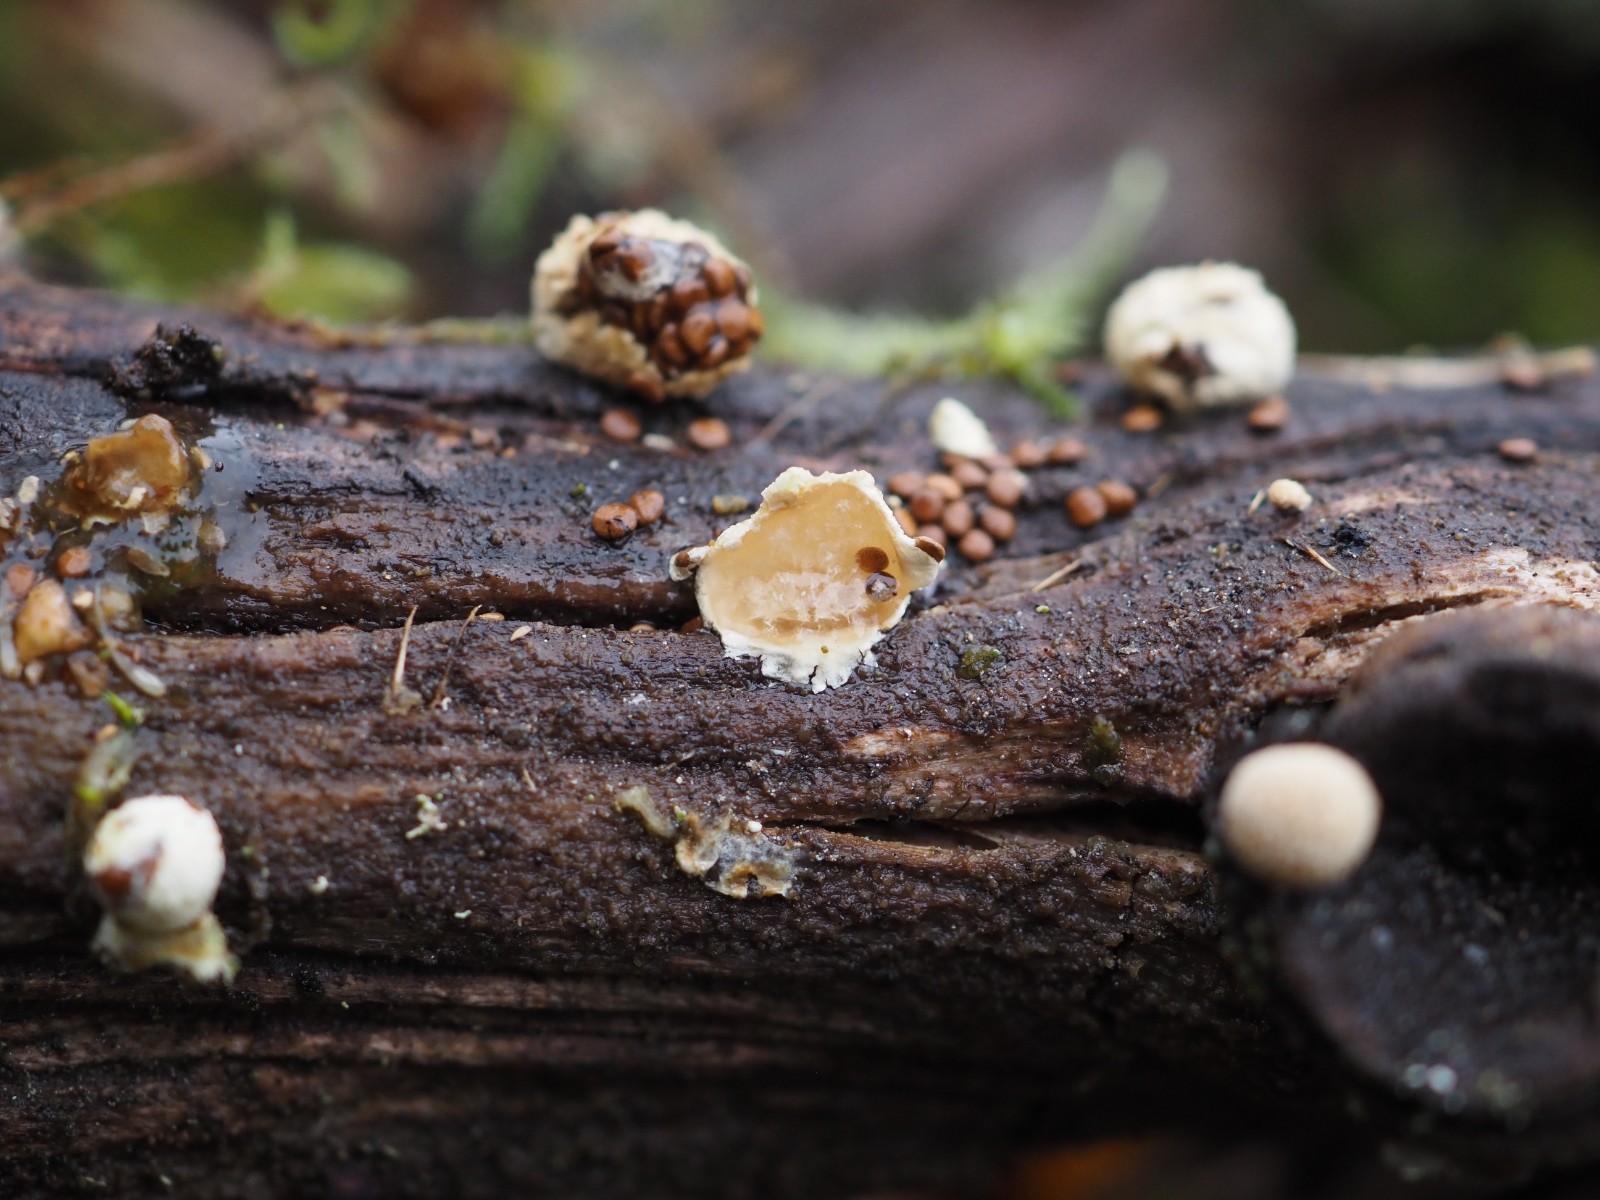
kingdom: Fungi
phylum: Basidiomycota
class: Agaricomycetes
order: Agaricales
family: Agaricaceae
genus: Nidularia
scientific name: Nidularia deformis
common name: pudesvamp
